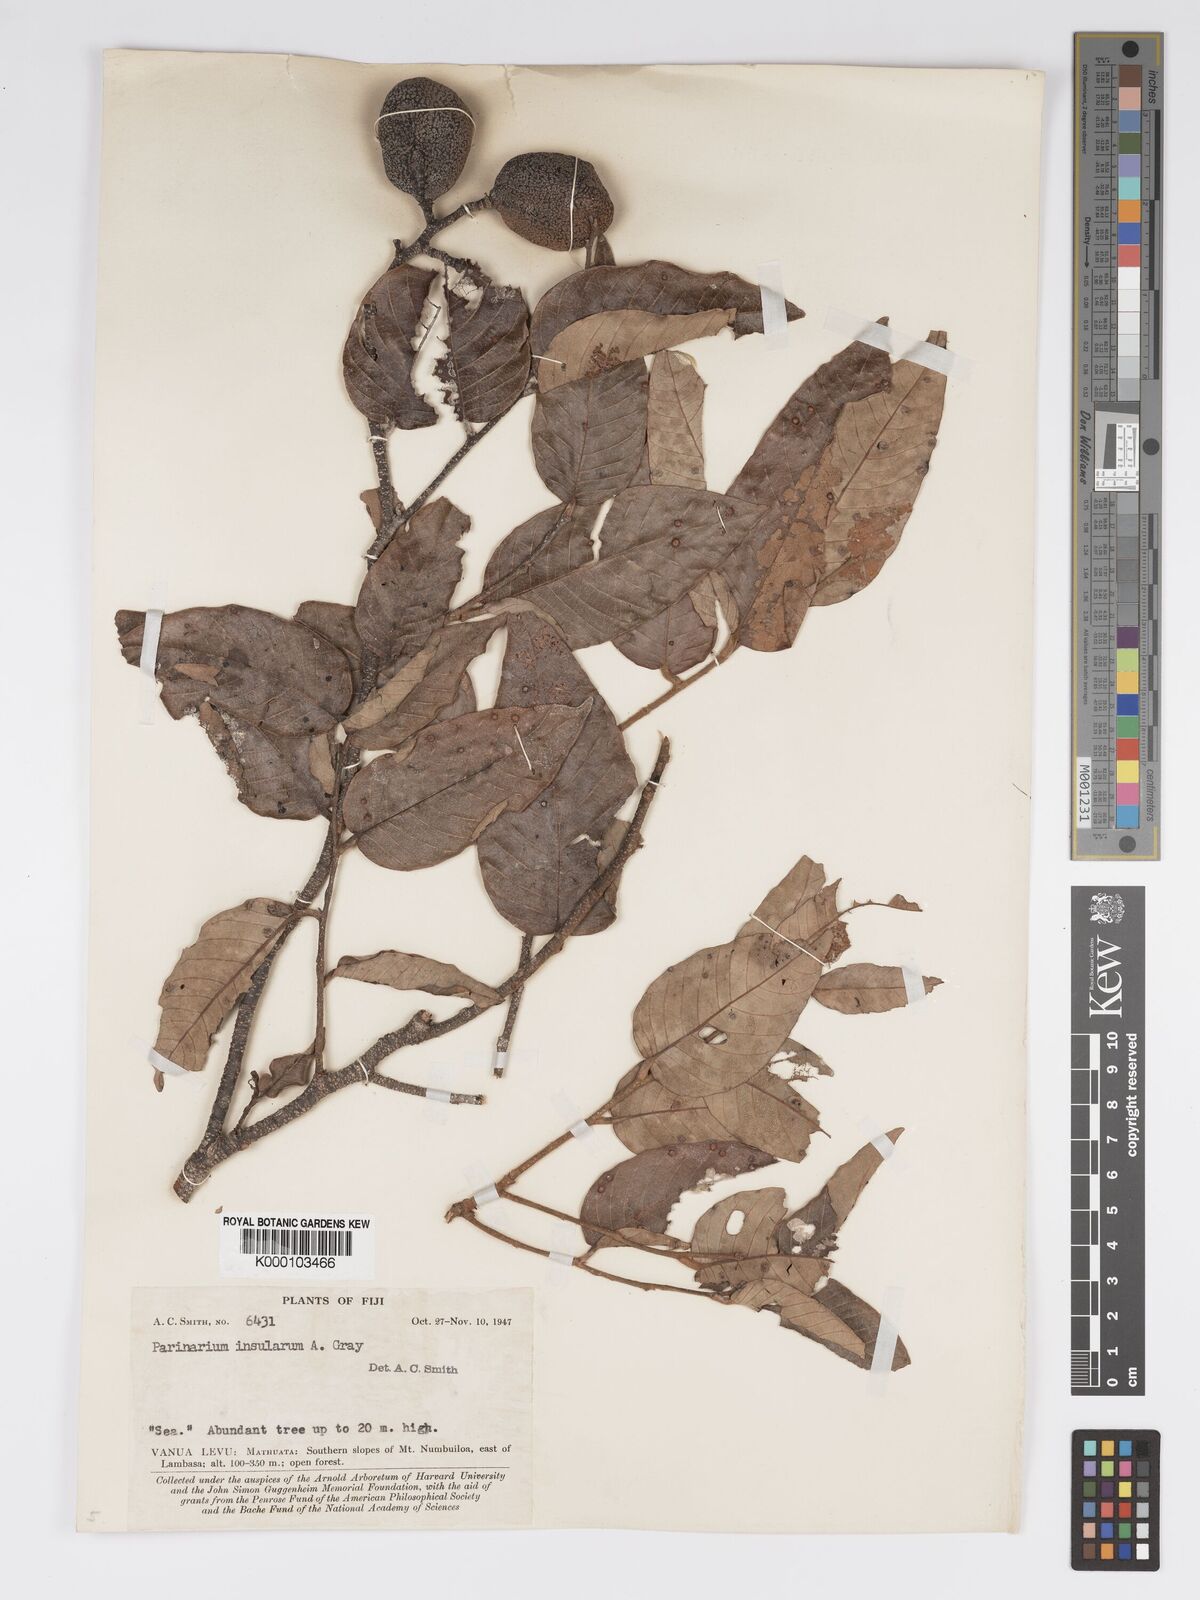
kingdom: Plantae
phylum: Tracheophyta
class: Magnoliopsida
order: Malpighiales
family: Chrysobalanaceae
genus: Parinari
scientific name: Parinari insularum
